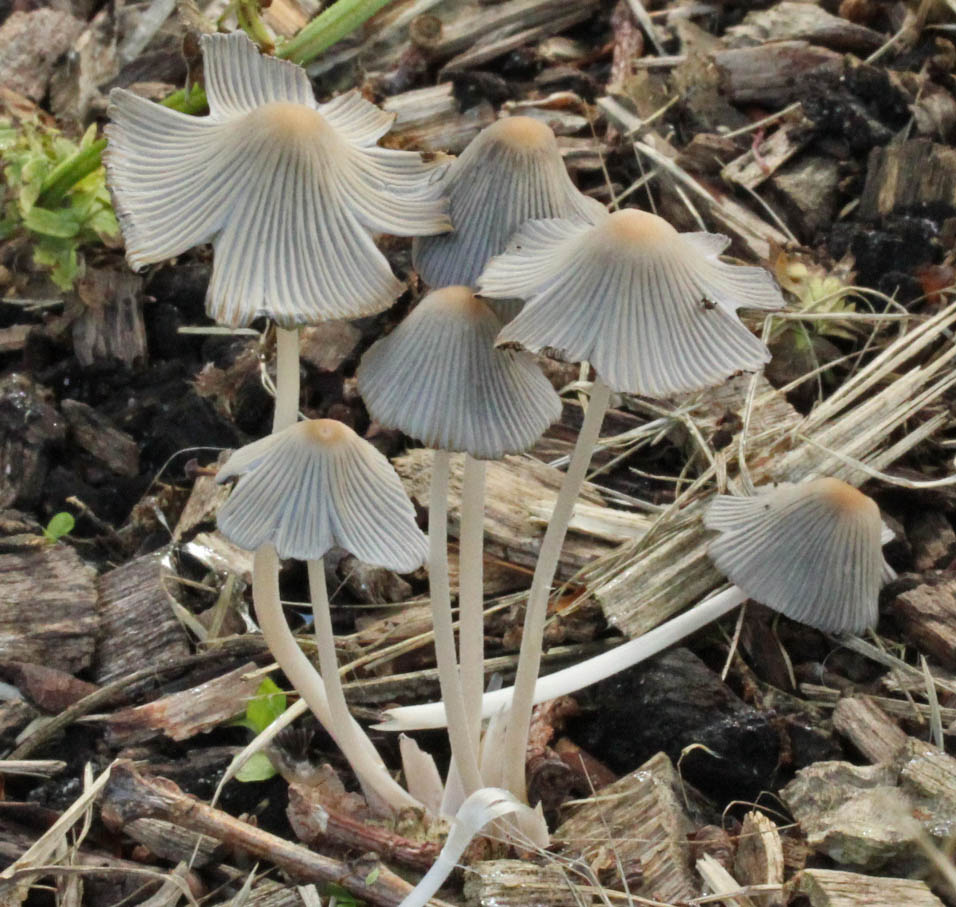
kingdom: Fungi
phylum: Basidiomycota
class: Agaricomycetes
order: Agaricales
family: Psathyrellaceae
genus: Tulosesus
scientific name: Tulosesus heterosetulosus
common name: forskellighåret blækhat
